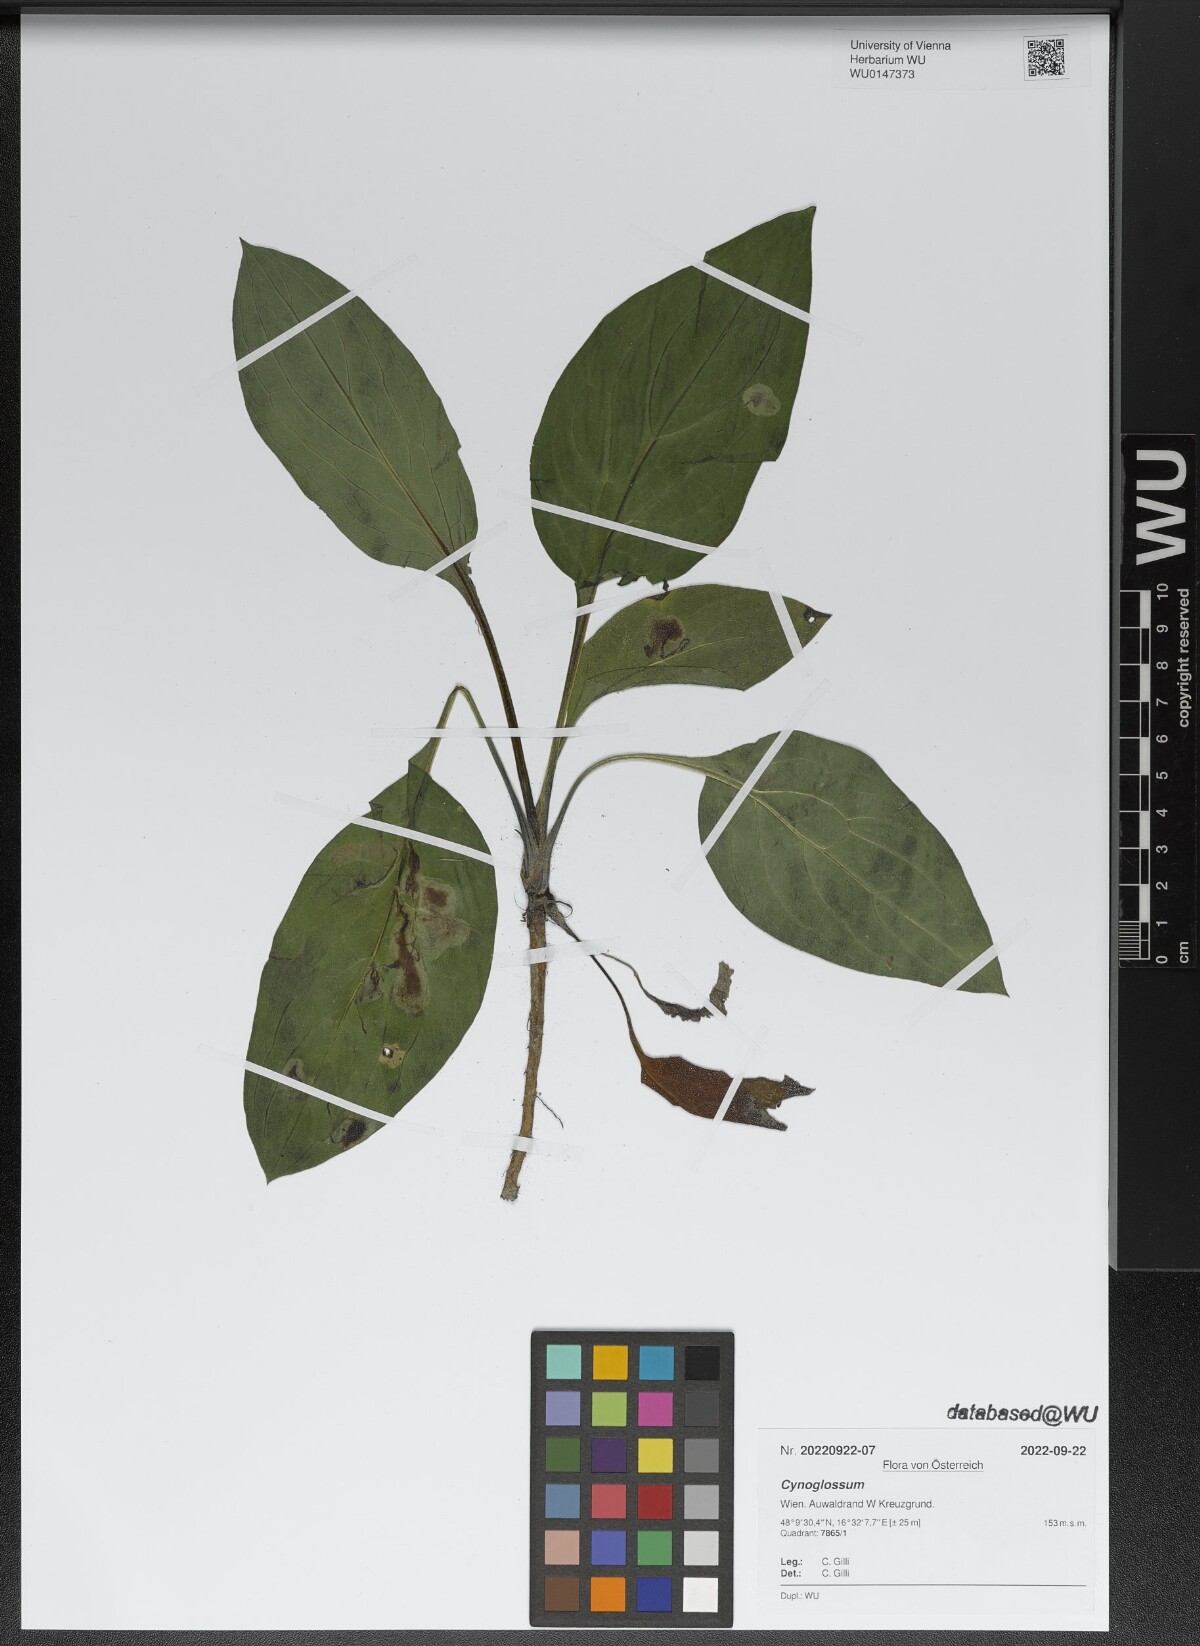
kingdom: Plantae
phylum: Tracheophyta
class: Magnoliopsida
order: Boraginales
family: Boraginaceae
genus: Cynoglossum
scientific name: Cynoglossum
